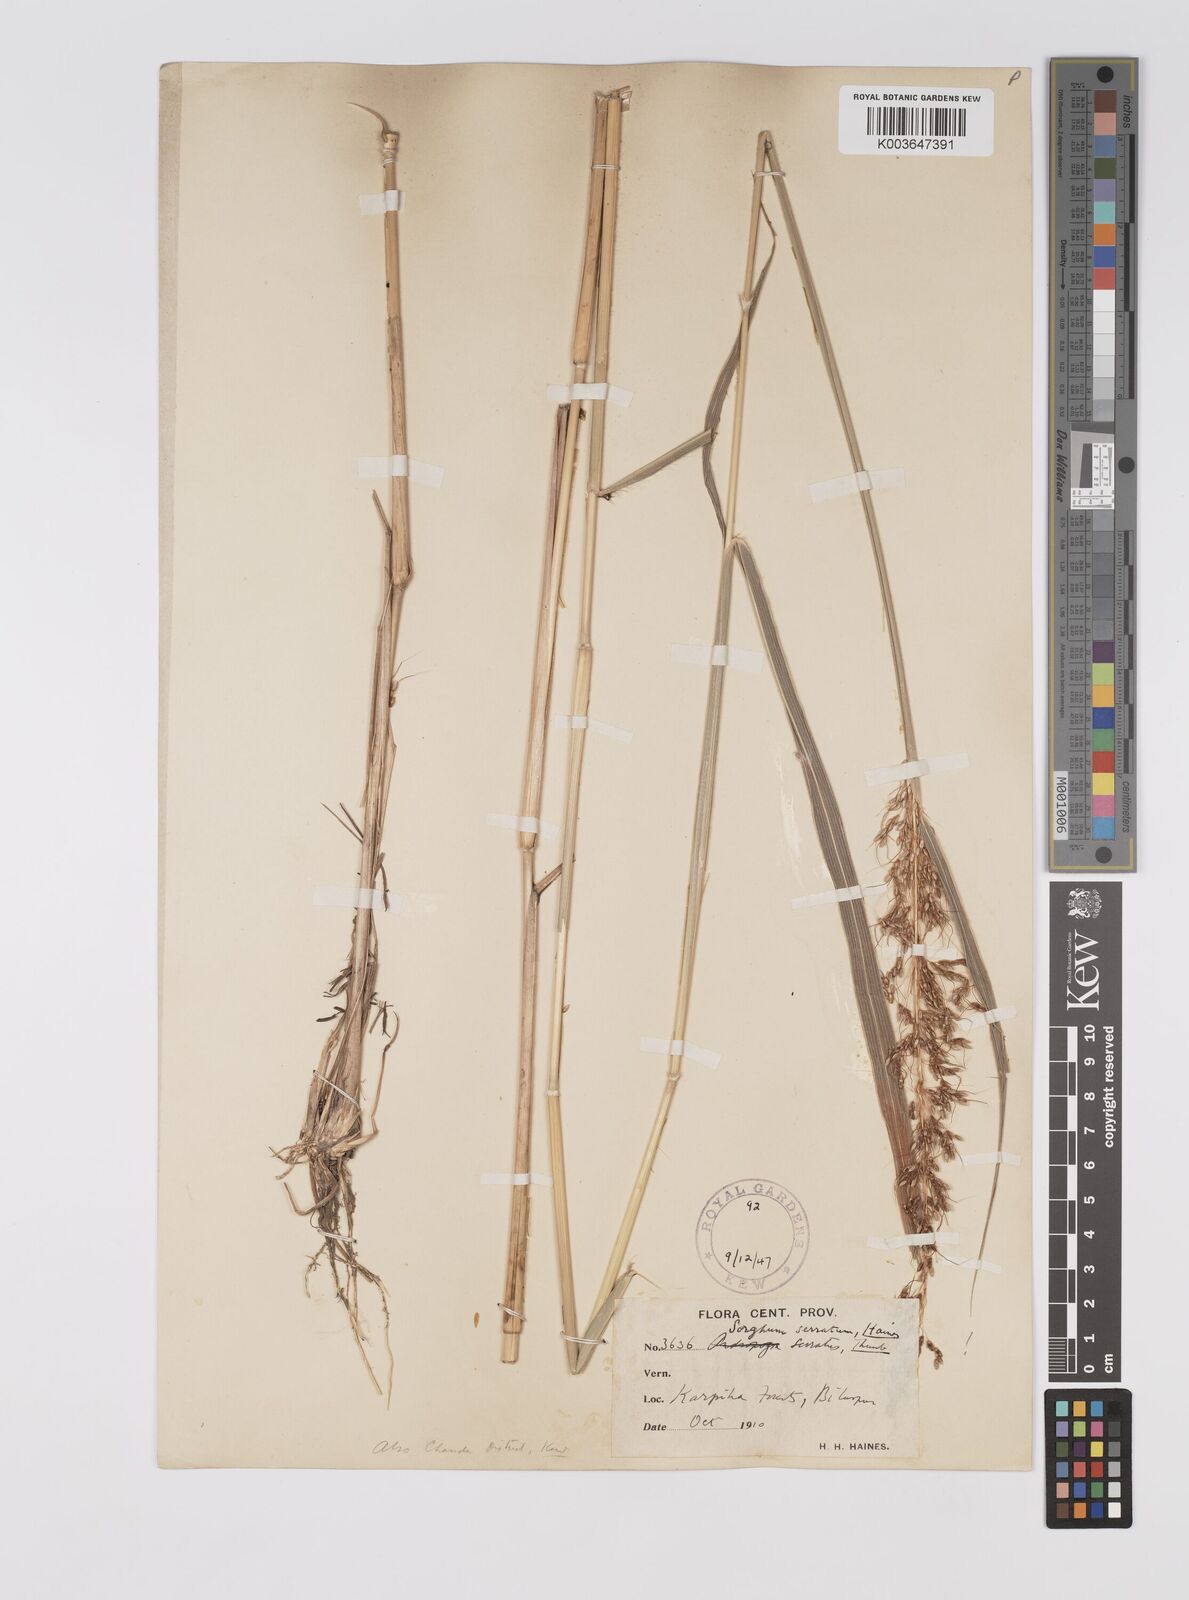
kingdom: Plantae
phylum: Tracheophyta
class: Liliopsida
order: Poales
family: Poaceae
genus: Sorghum
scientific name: Sorghum nitidum
